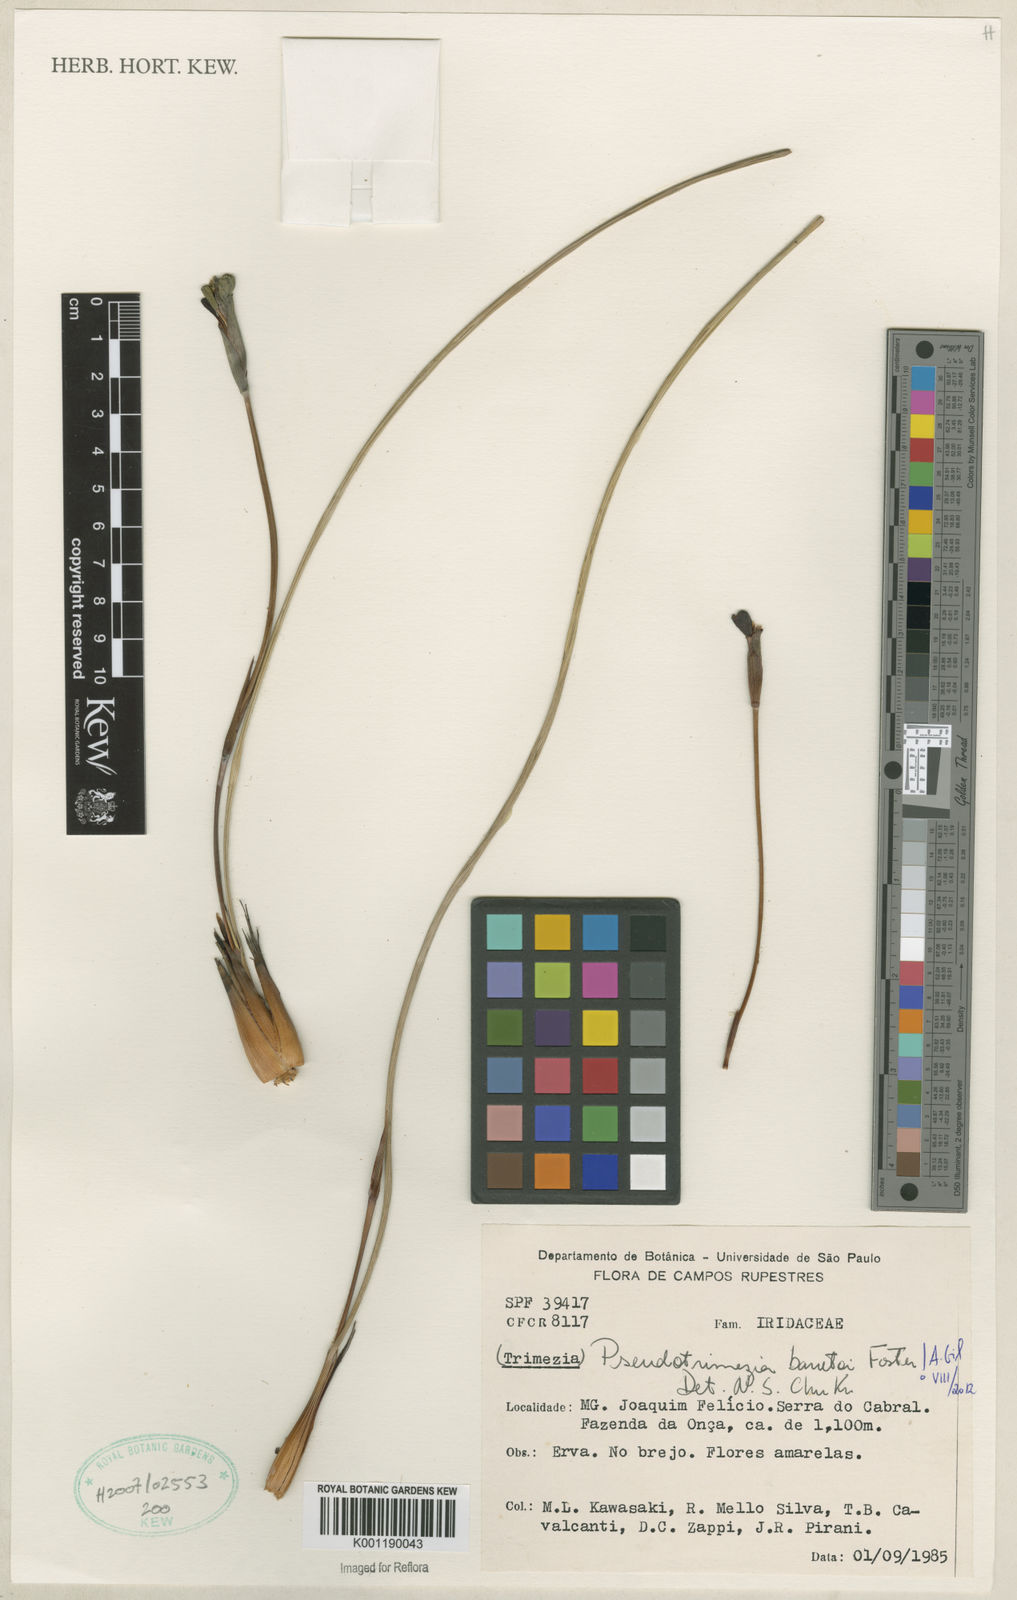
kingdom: Plantae
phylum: Tracheophyta
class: Liliopsida
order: Asparagales
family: Iridaceae
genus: Trimezia
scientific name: Trimezia barretoi
